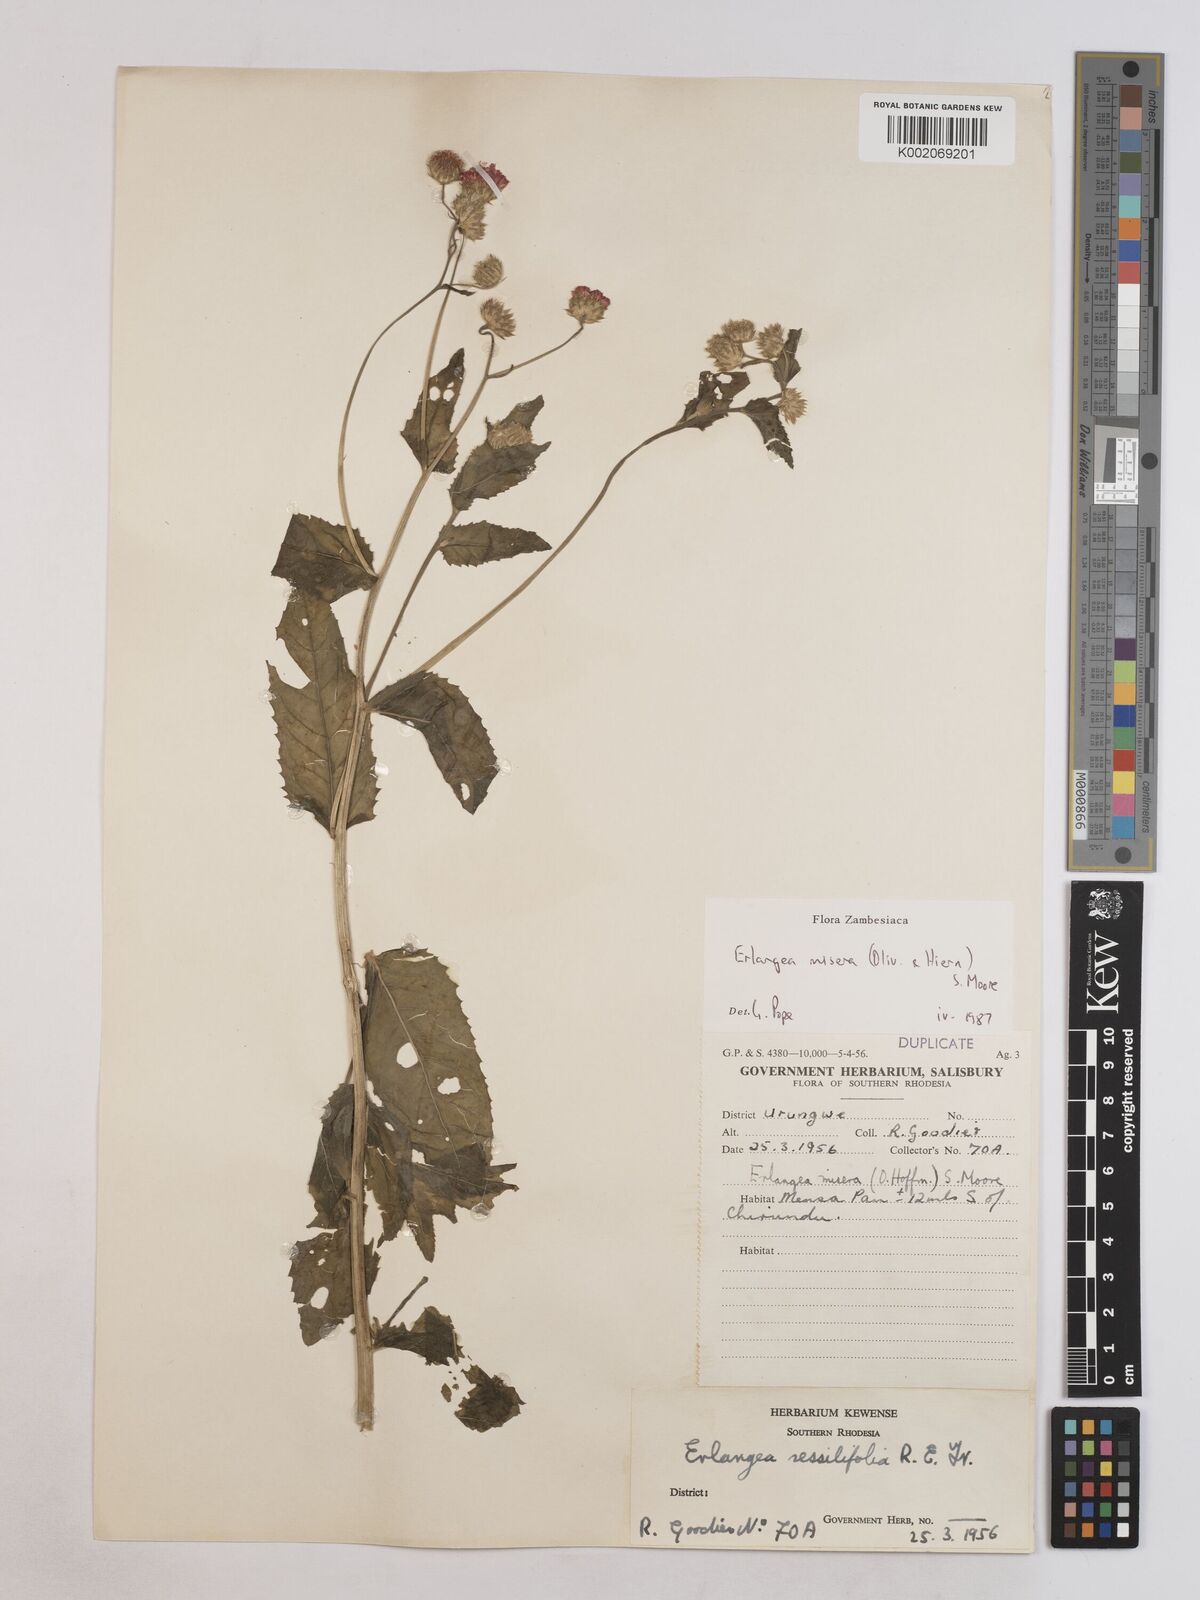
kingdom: Plantae
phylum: Tracheophyta
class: Magnoliopsida
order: Asterales
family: Asteraceae
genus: Erlangea
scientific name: Erlangea misera
